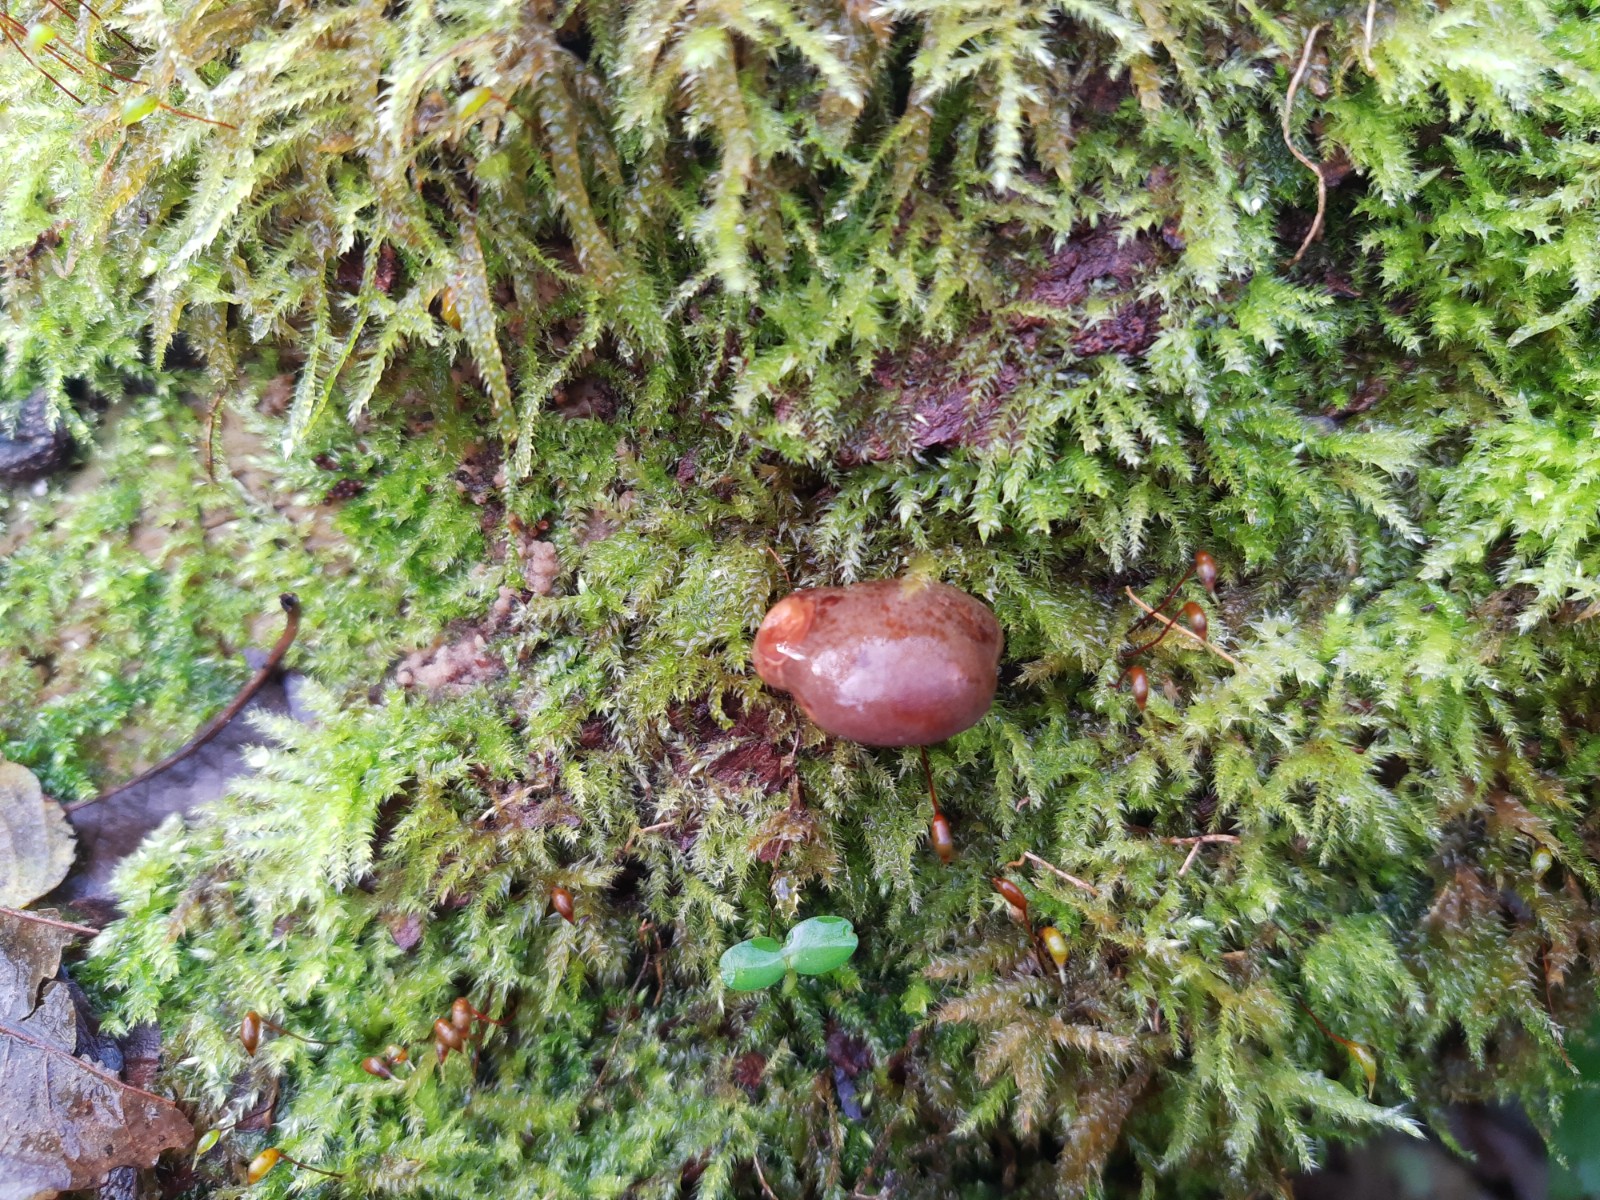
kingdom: Fungi
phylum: Basidiomycota
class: Agaricomycetes
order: Agaricales
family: Sarcomyxaceae
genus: Sarcomyxa
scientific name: Sarcomyxa serotina
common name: gummihat
